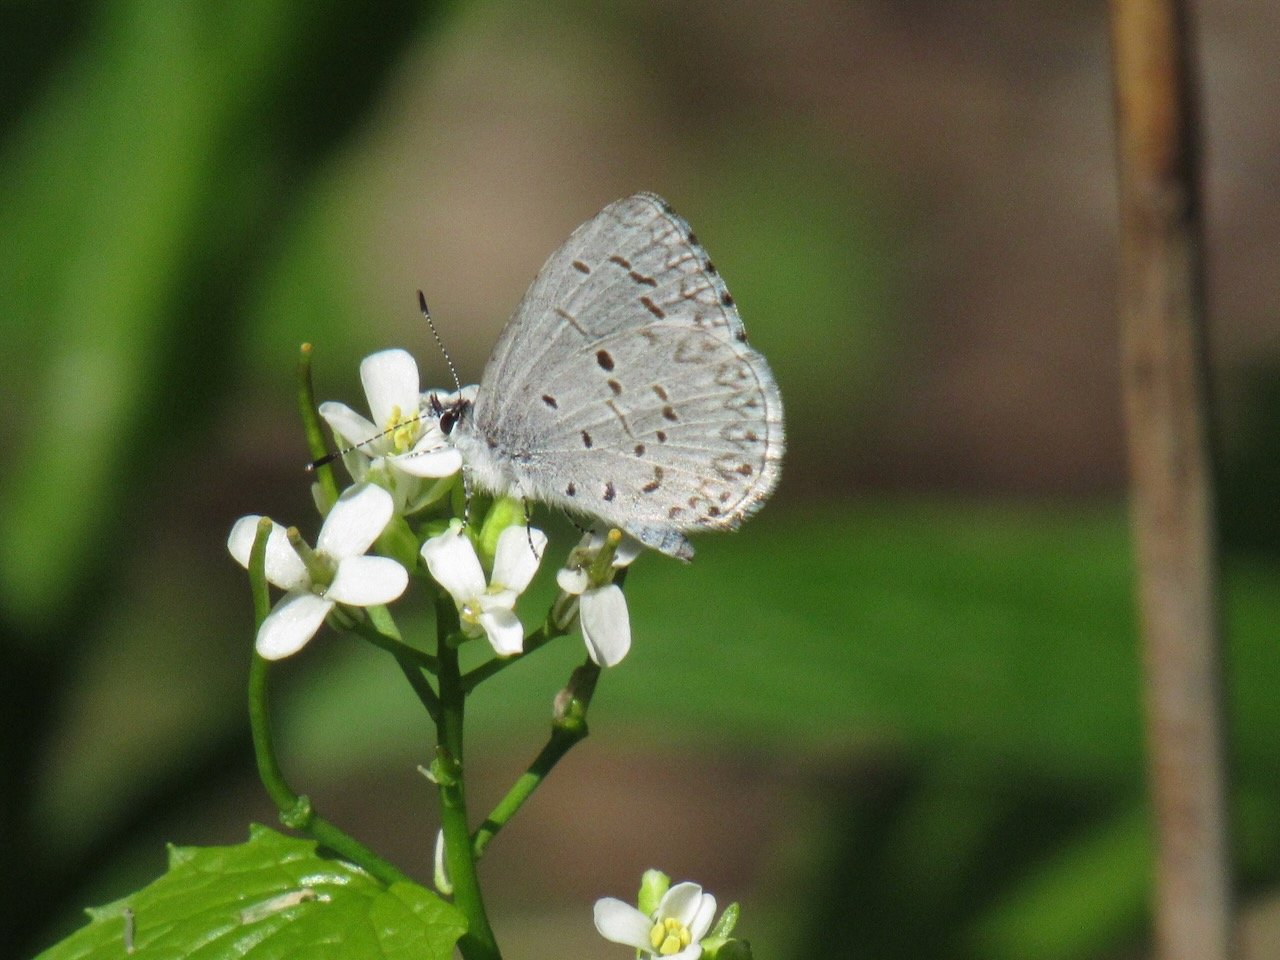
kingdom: Animalia
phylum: Arthropoda
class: Insecta
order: Lepidoptera
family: Lycaenidae
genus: Celastrina
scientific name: Celastrina lucia
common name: Northern Spring Azure
